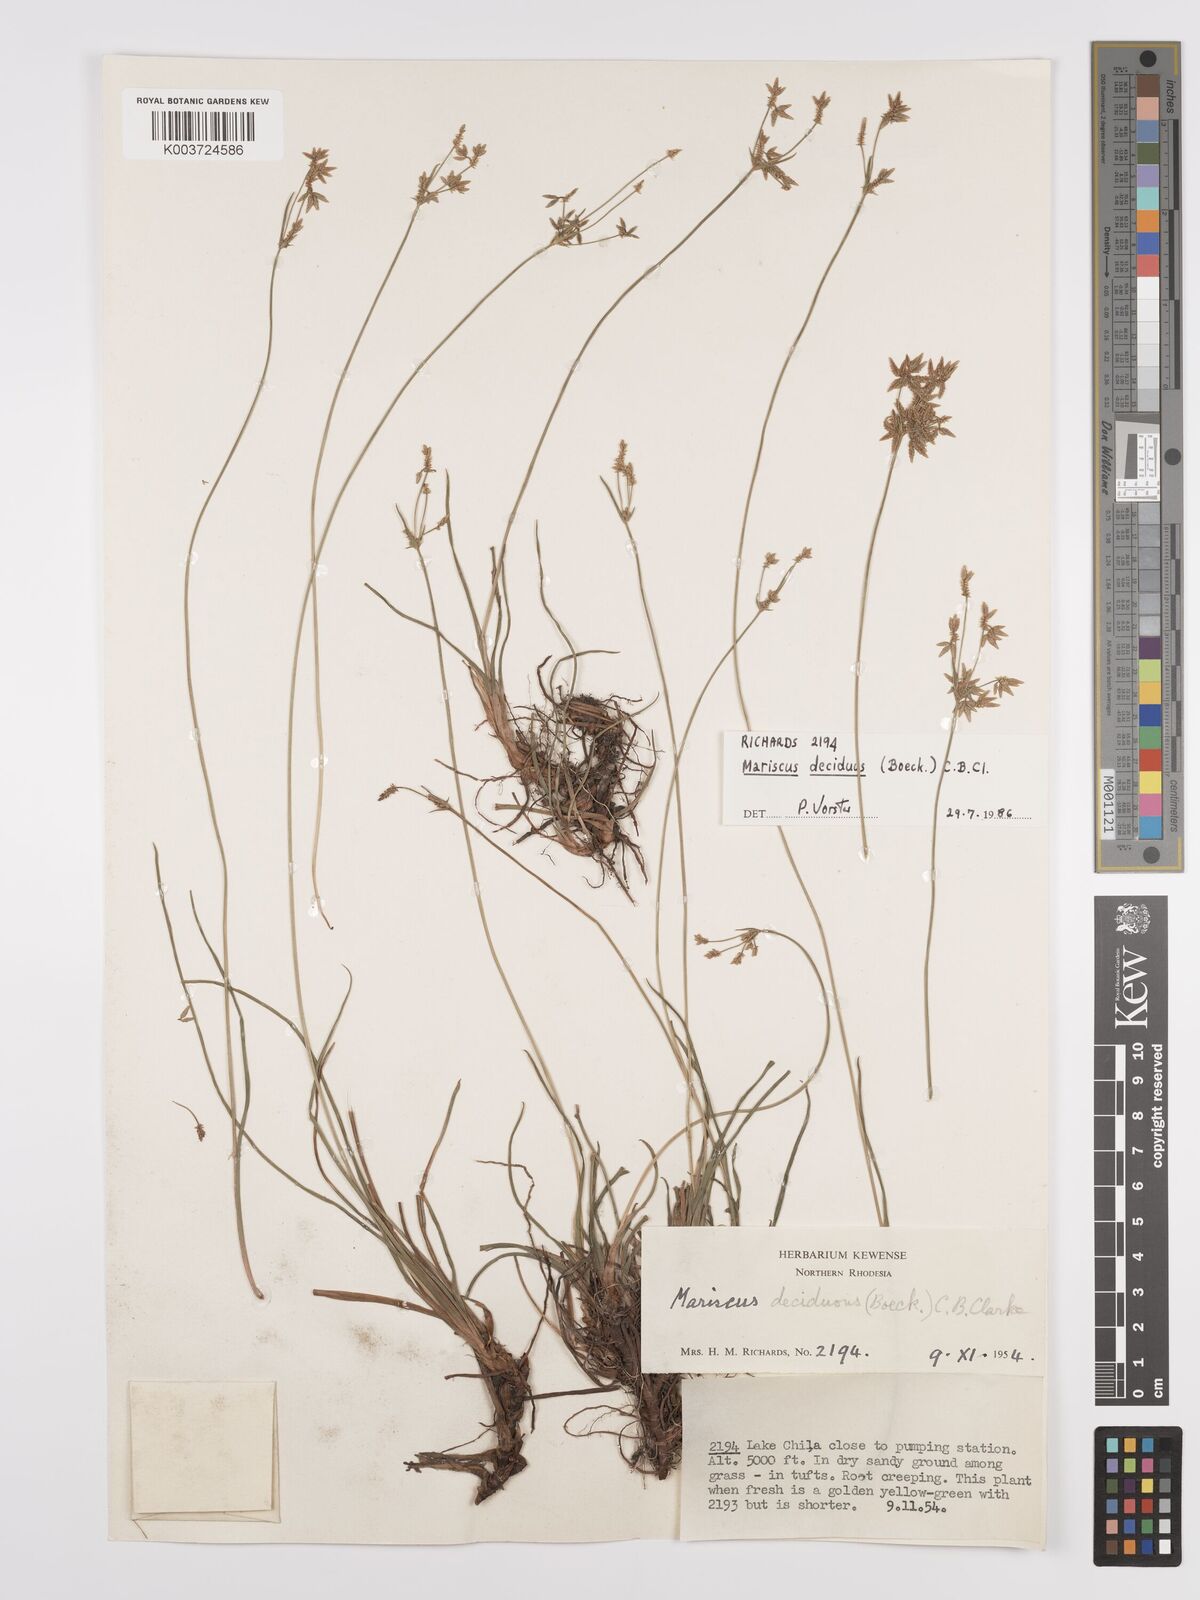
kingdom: Plantae
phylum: Tracheophyta
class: Liliopsida
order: Poales
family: Cyperaceae
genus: Cyperus
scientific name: Cyperus deciduus
